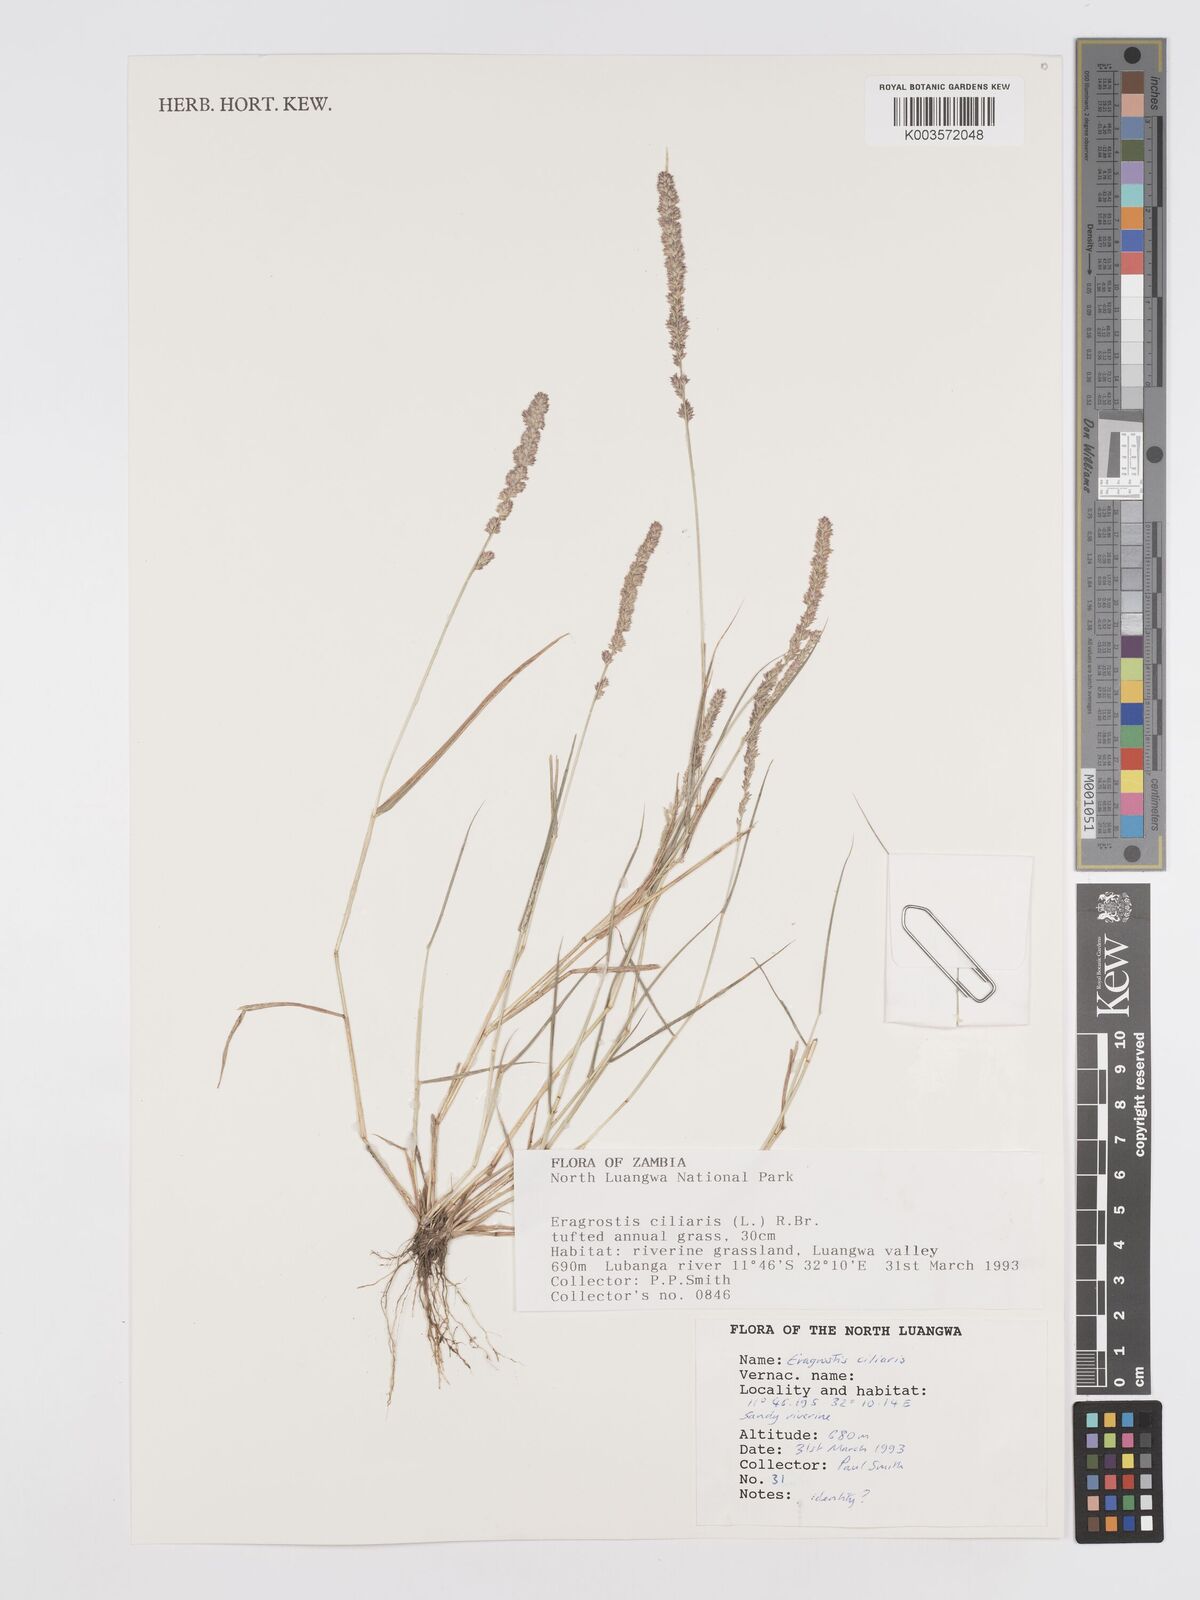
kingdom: Plantae
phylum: Tracheophyta
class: Liliopsida
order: Poales
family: Poaceae
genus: Eragrostis
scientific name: Eragrostis ciliaris
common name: Gophertail lovegrass
